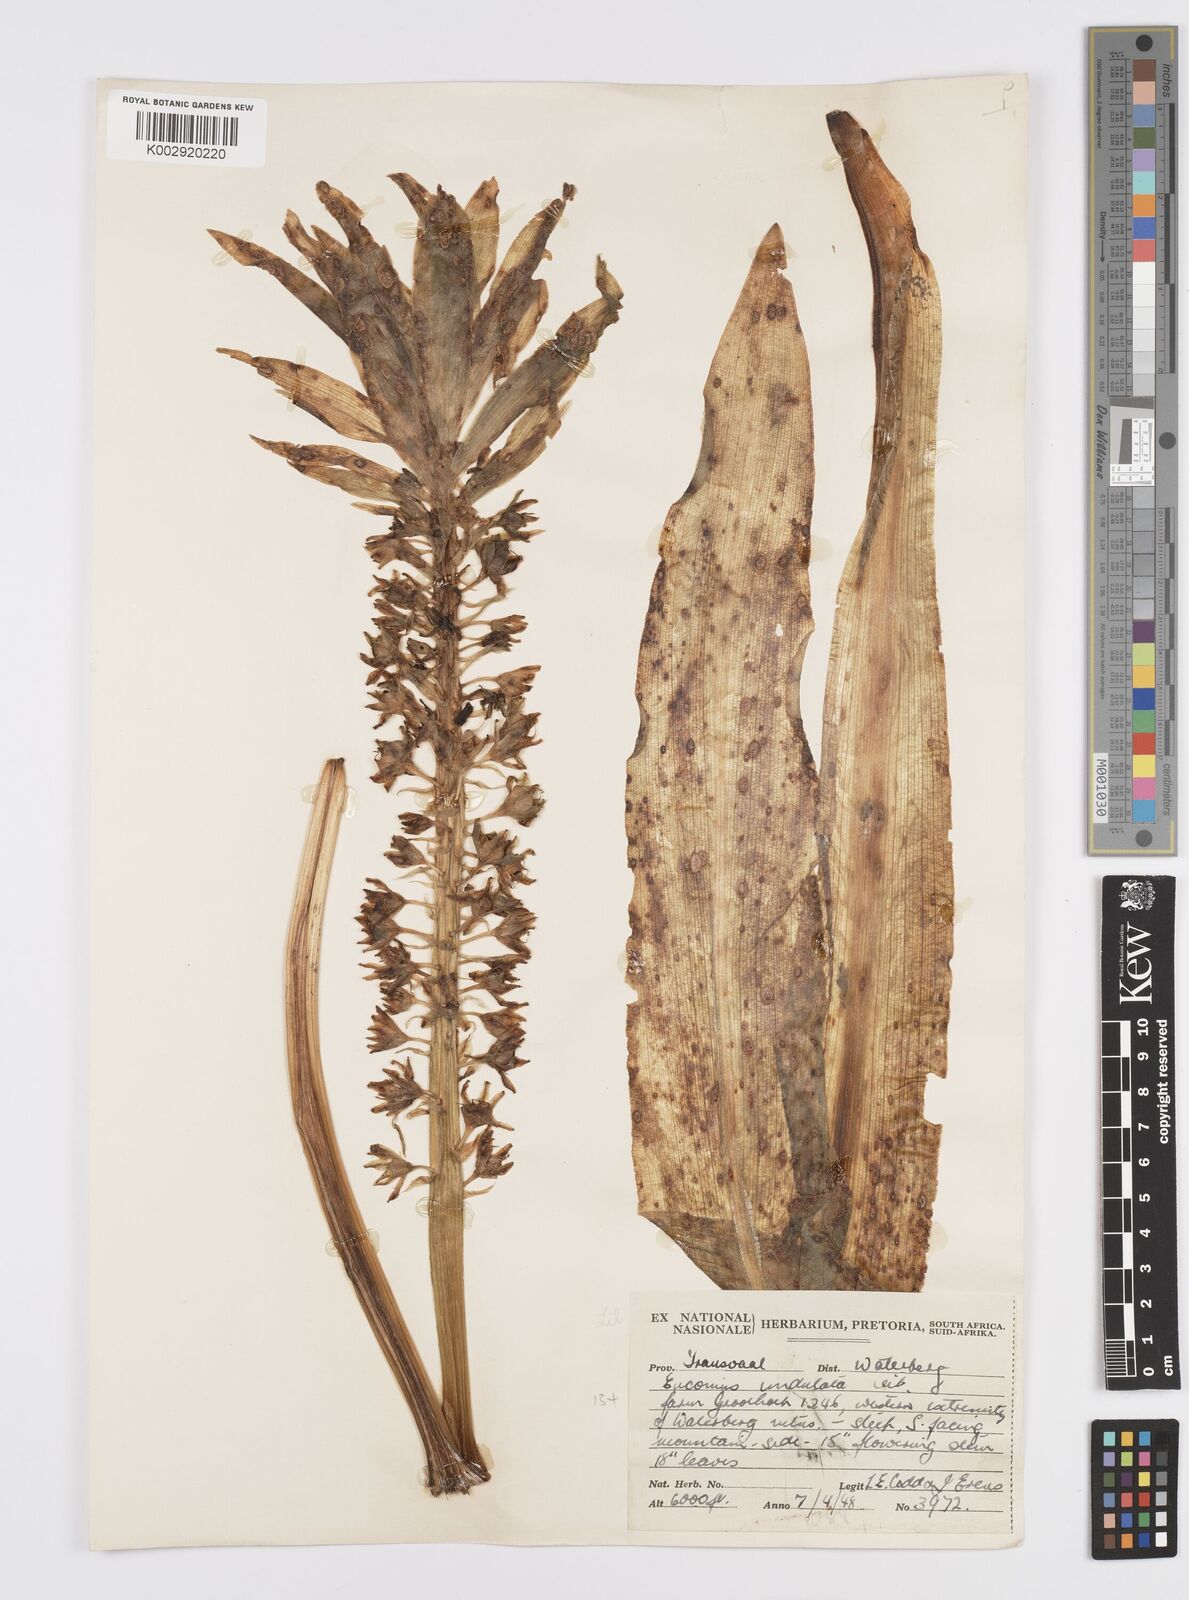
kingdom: Plantae
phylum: Tracheophyta
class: Liliopsida
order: Asparagales
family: Asparagaceae
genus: Eucomis
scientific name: Eucomis
